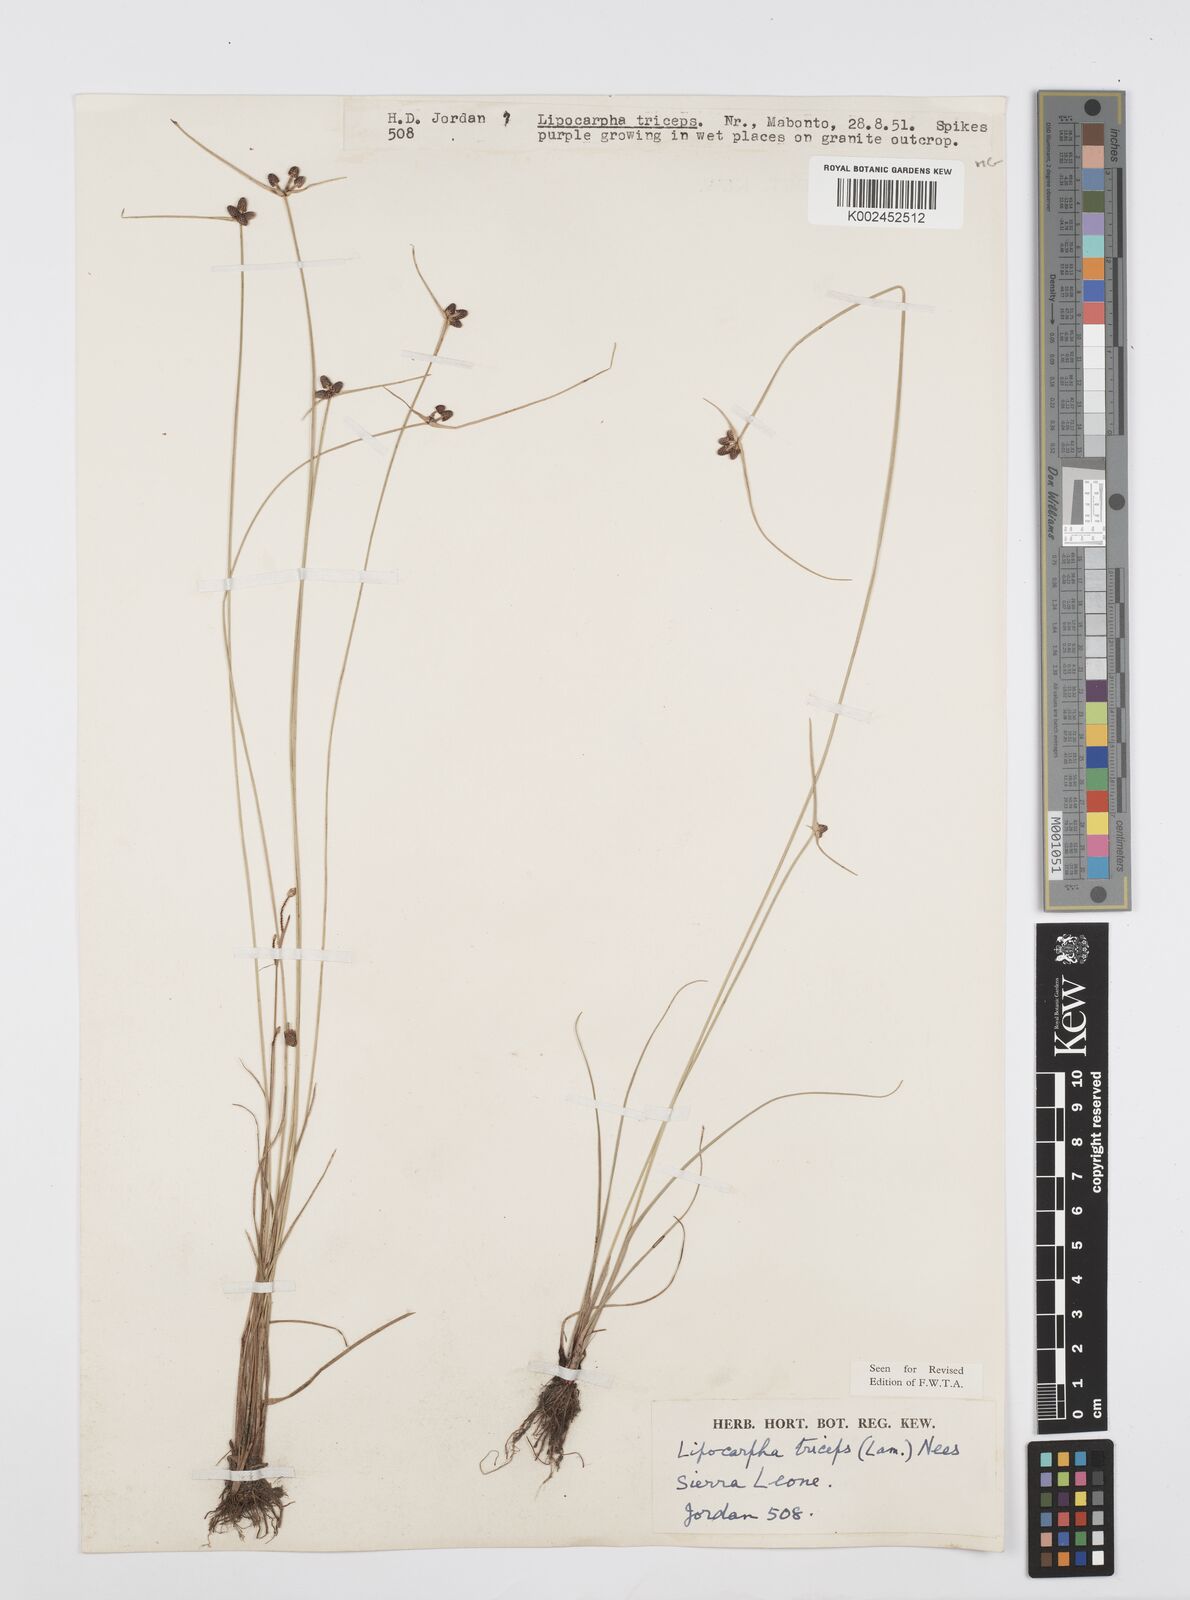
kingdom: Plantae
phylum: Tracheophyta
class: Liliopsida
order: Poales
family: Cyperaceae
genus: Cyperus
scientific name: Cyperus filiformis
